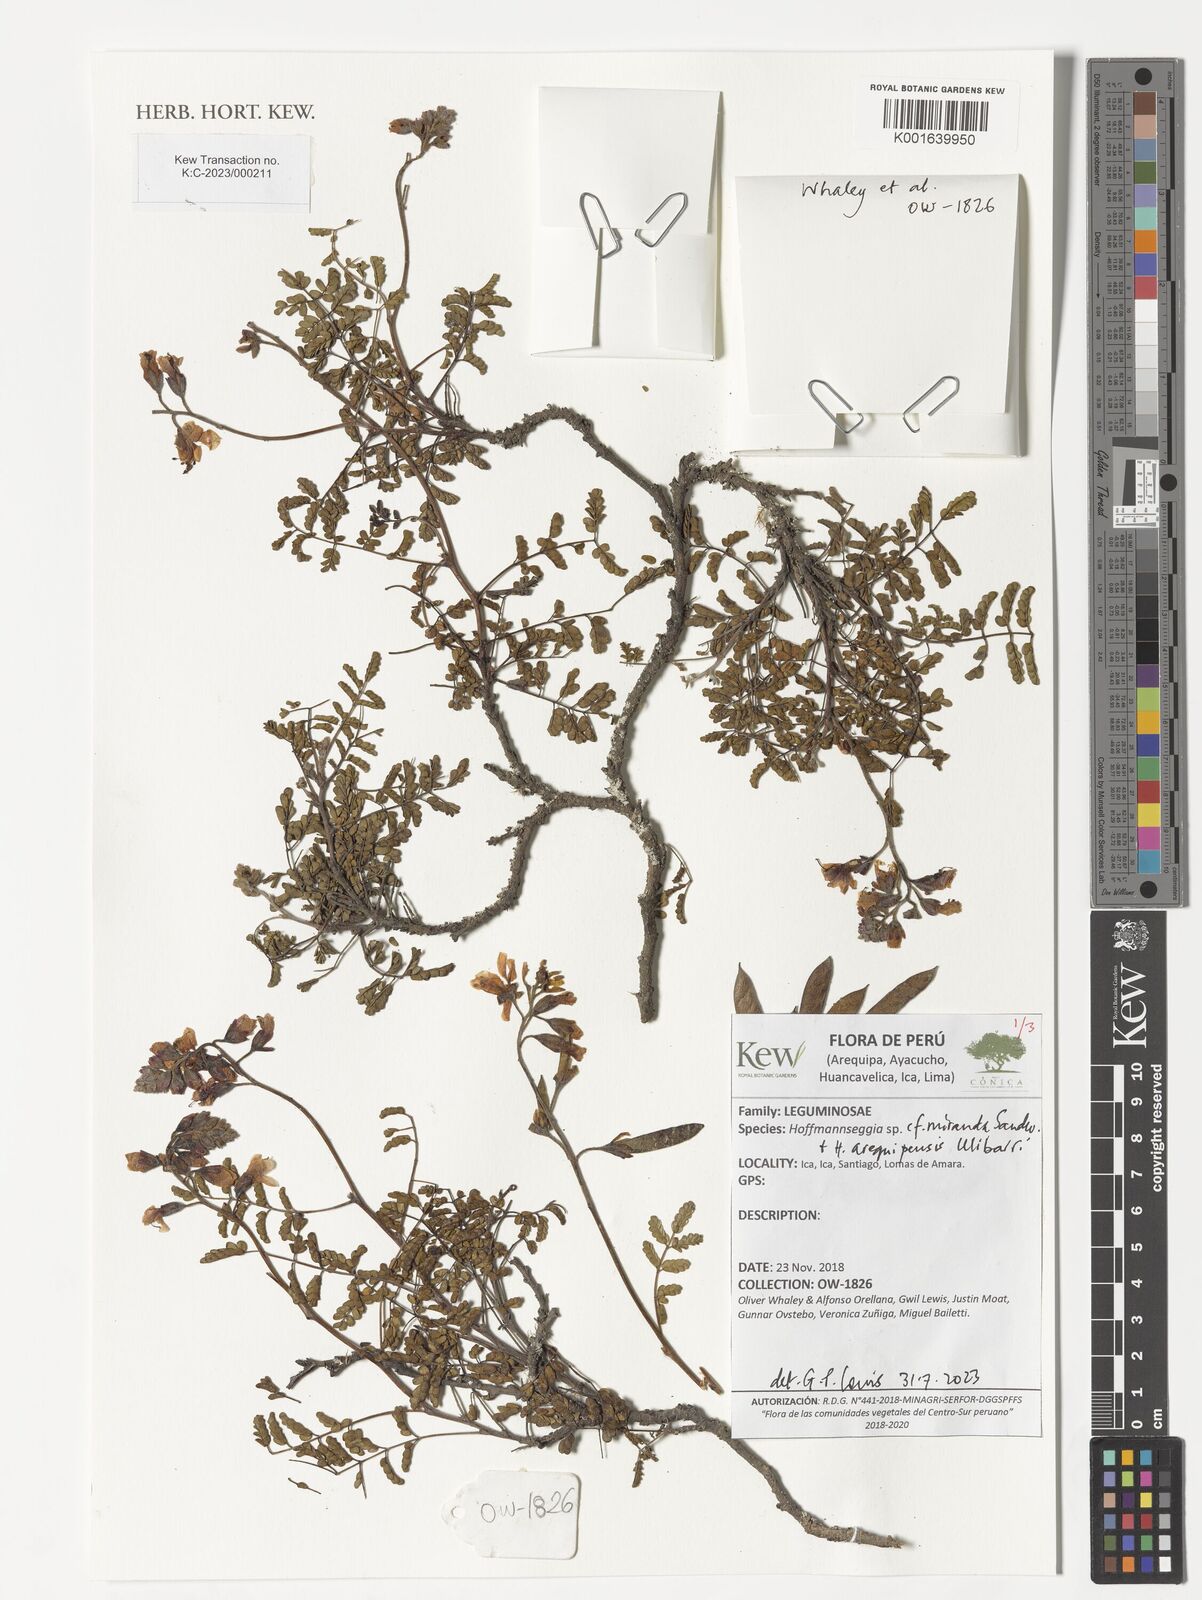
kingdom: Plantae
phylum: Tracheophyta
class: Magnoliopsida
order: Fabales
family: Fabaceae
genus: Hoffmannseggia
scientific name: Hoffmannseggia miranda
